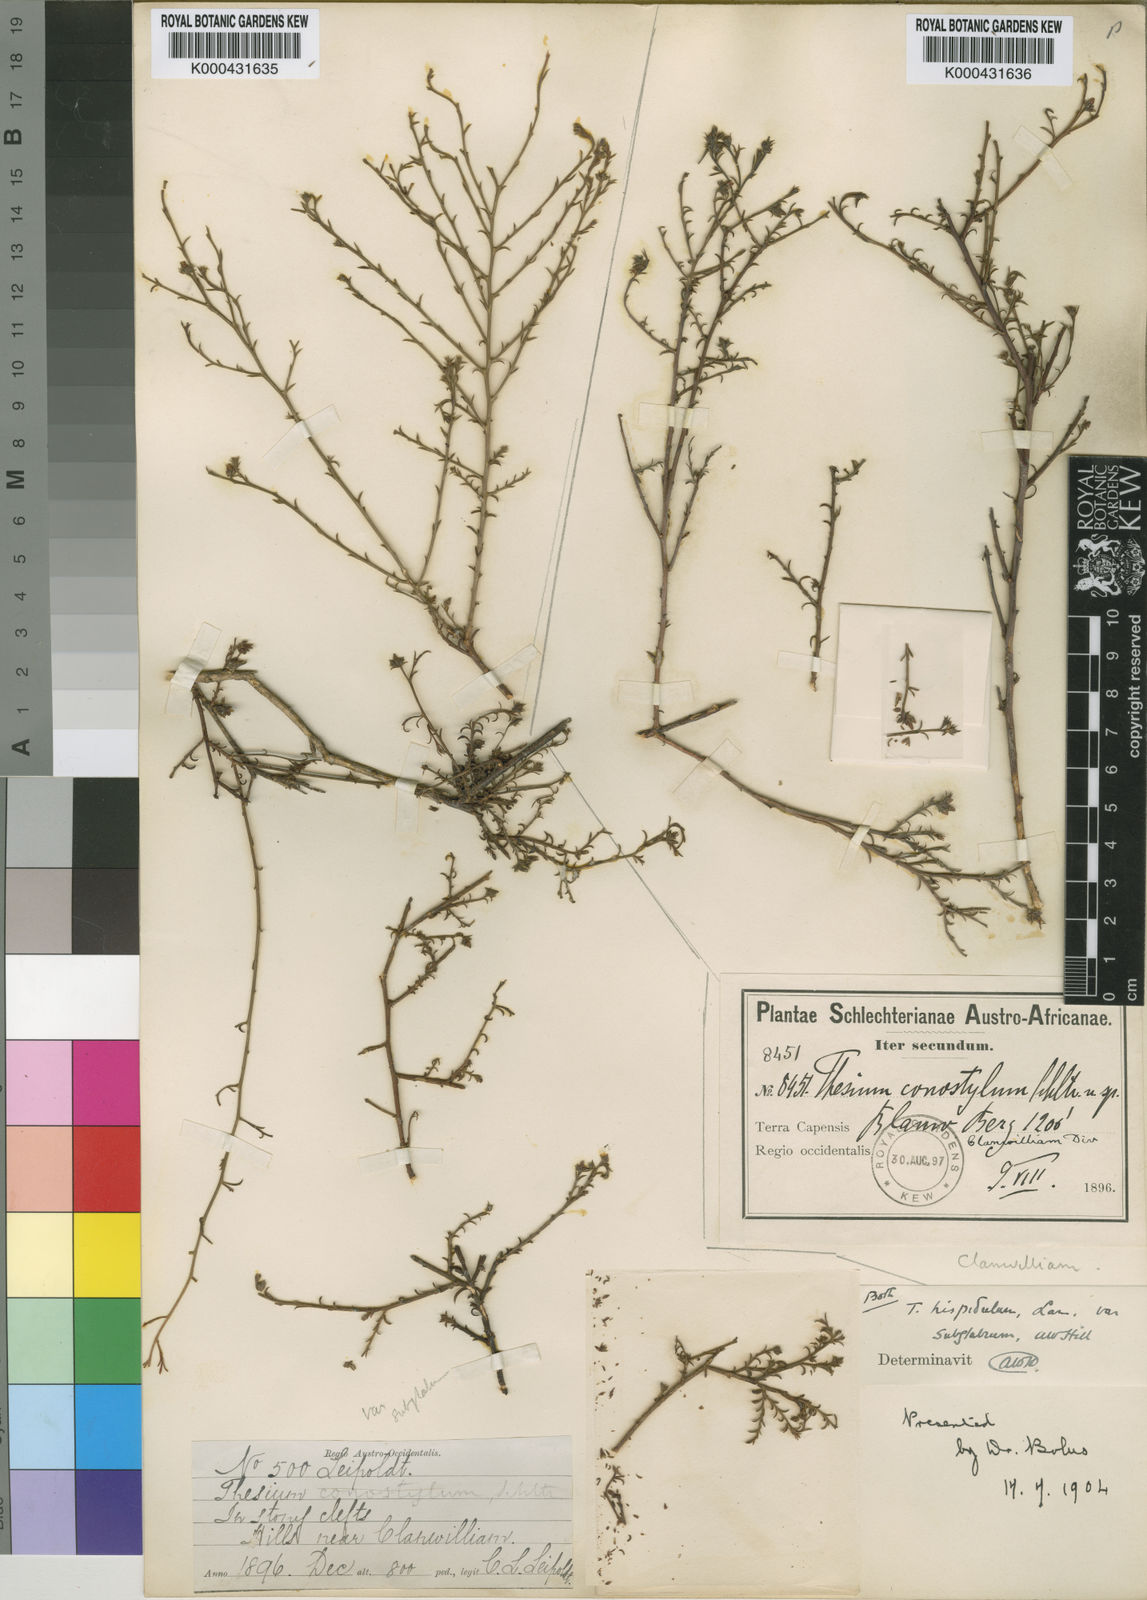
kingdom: Plantae
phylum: Tracheophyta
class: Magnoliopsida
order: Santalales
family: Thesiaceae
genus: Thesium
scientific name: Thesium
